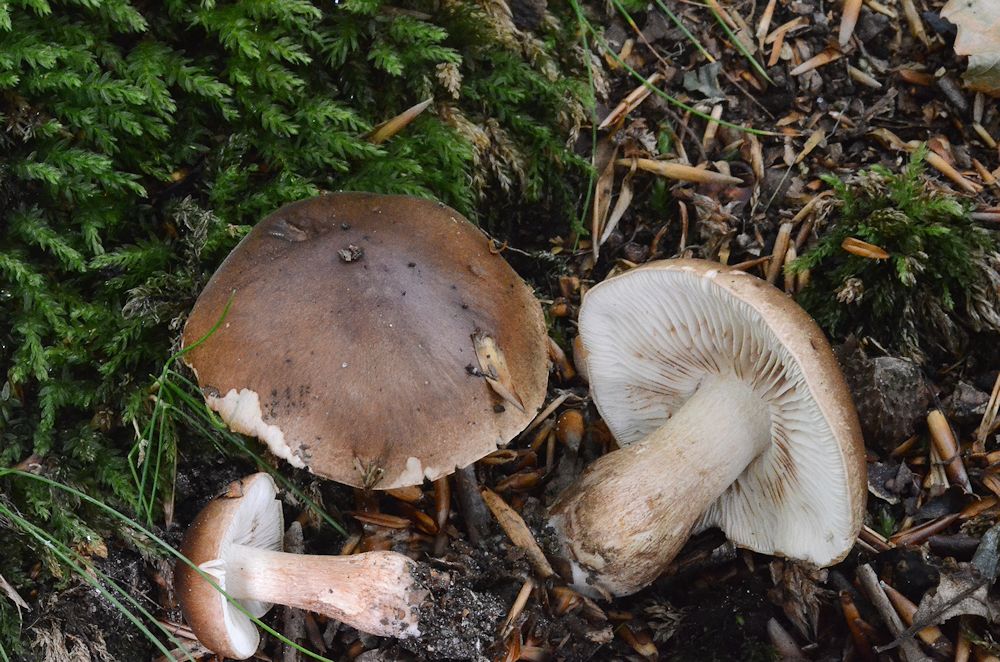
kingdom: Fungi
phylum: Basidiomycota
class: Agaricomycetes
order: Agaricales
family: Tricholomataceae
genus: Tricholoma
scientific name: Tricholoma ustale
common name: sveden ridderhat
